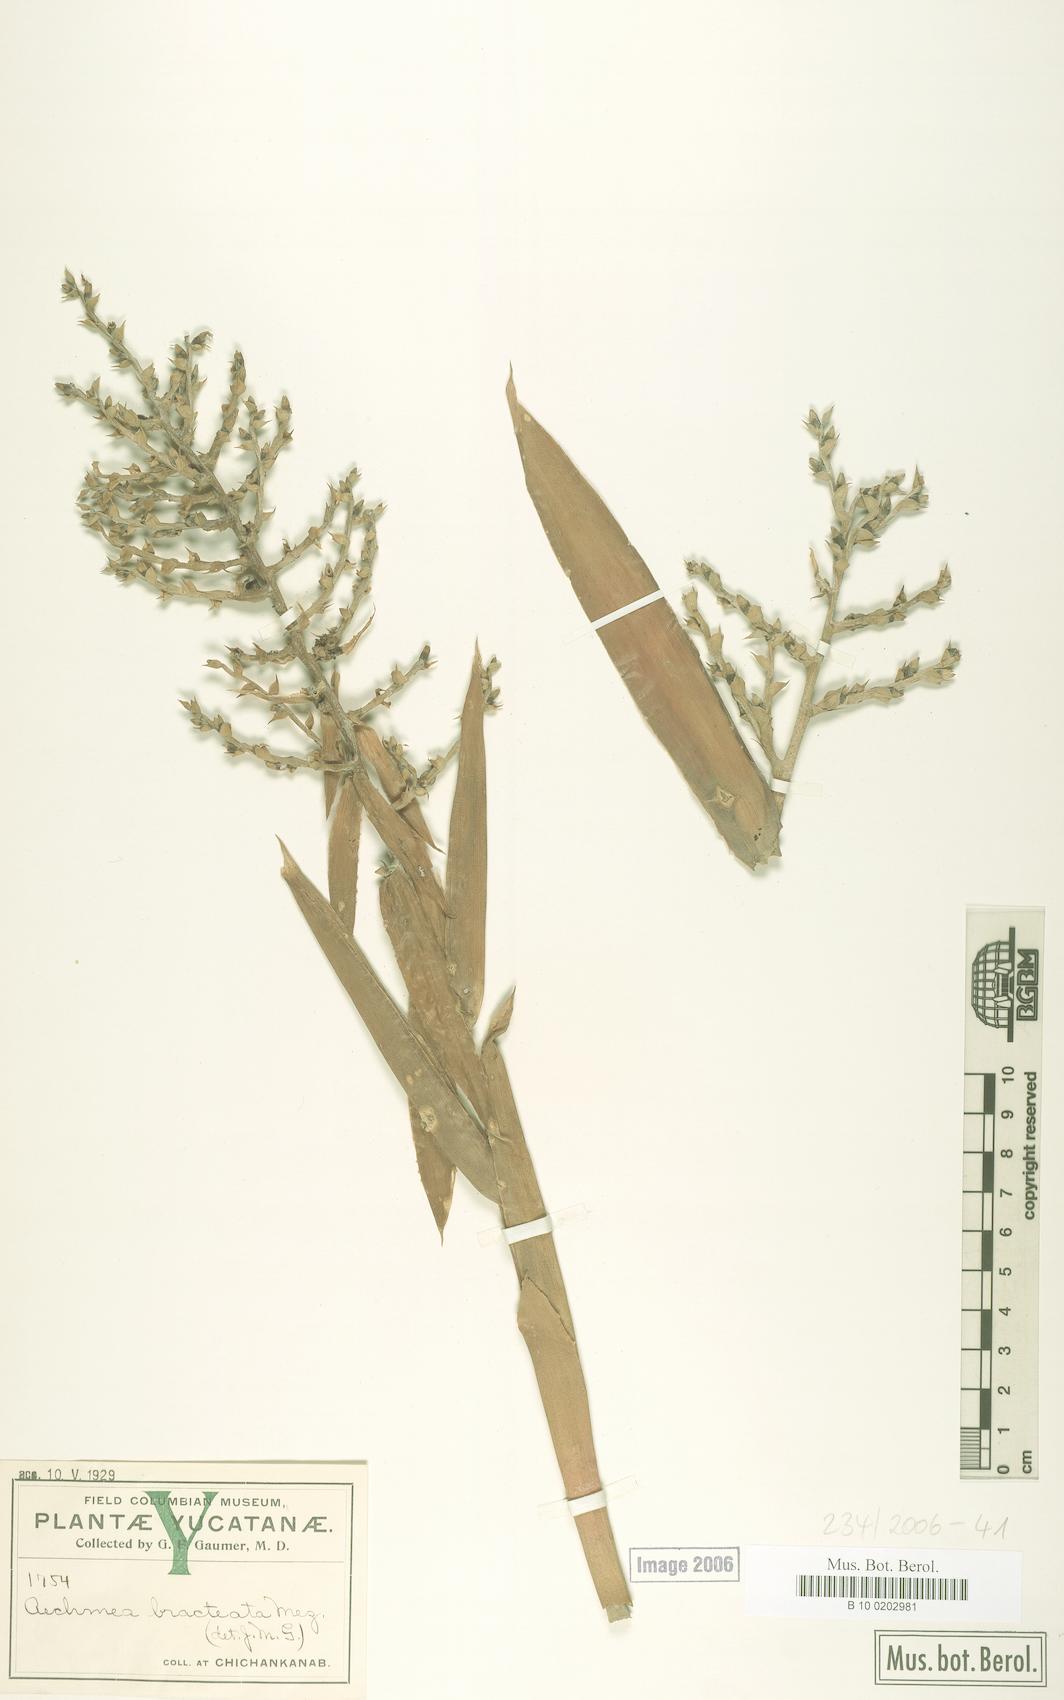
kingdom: Plantae
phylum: Tracheophyta
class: Liliopsida
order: Poales
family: Bromeliaceae
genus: Aechmea
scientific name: Aechmea bracteata
